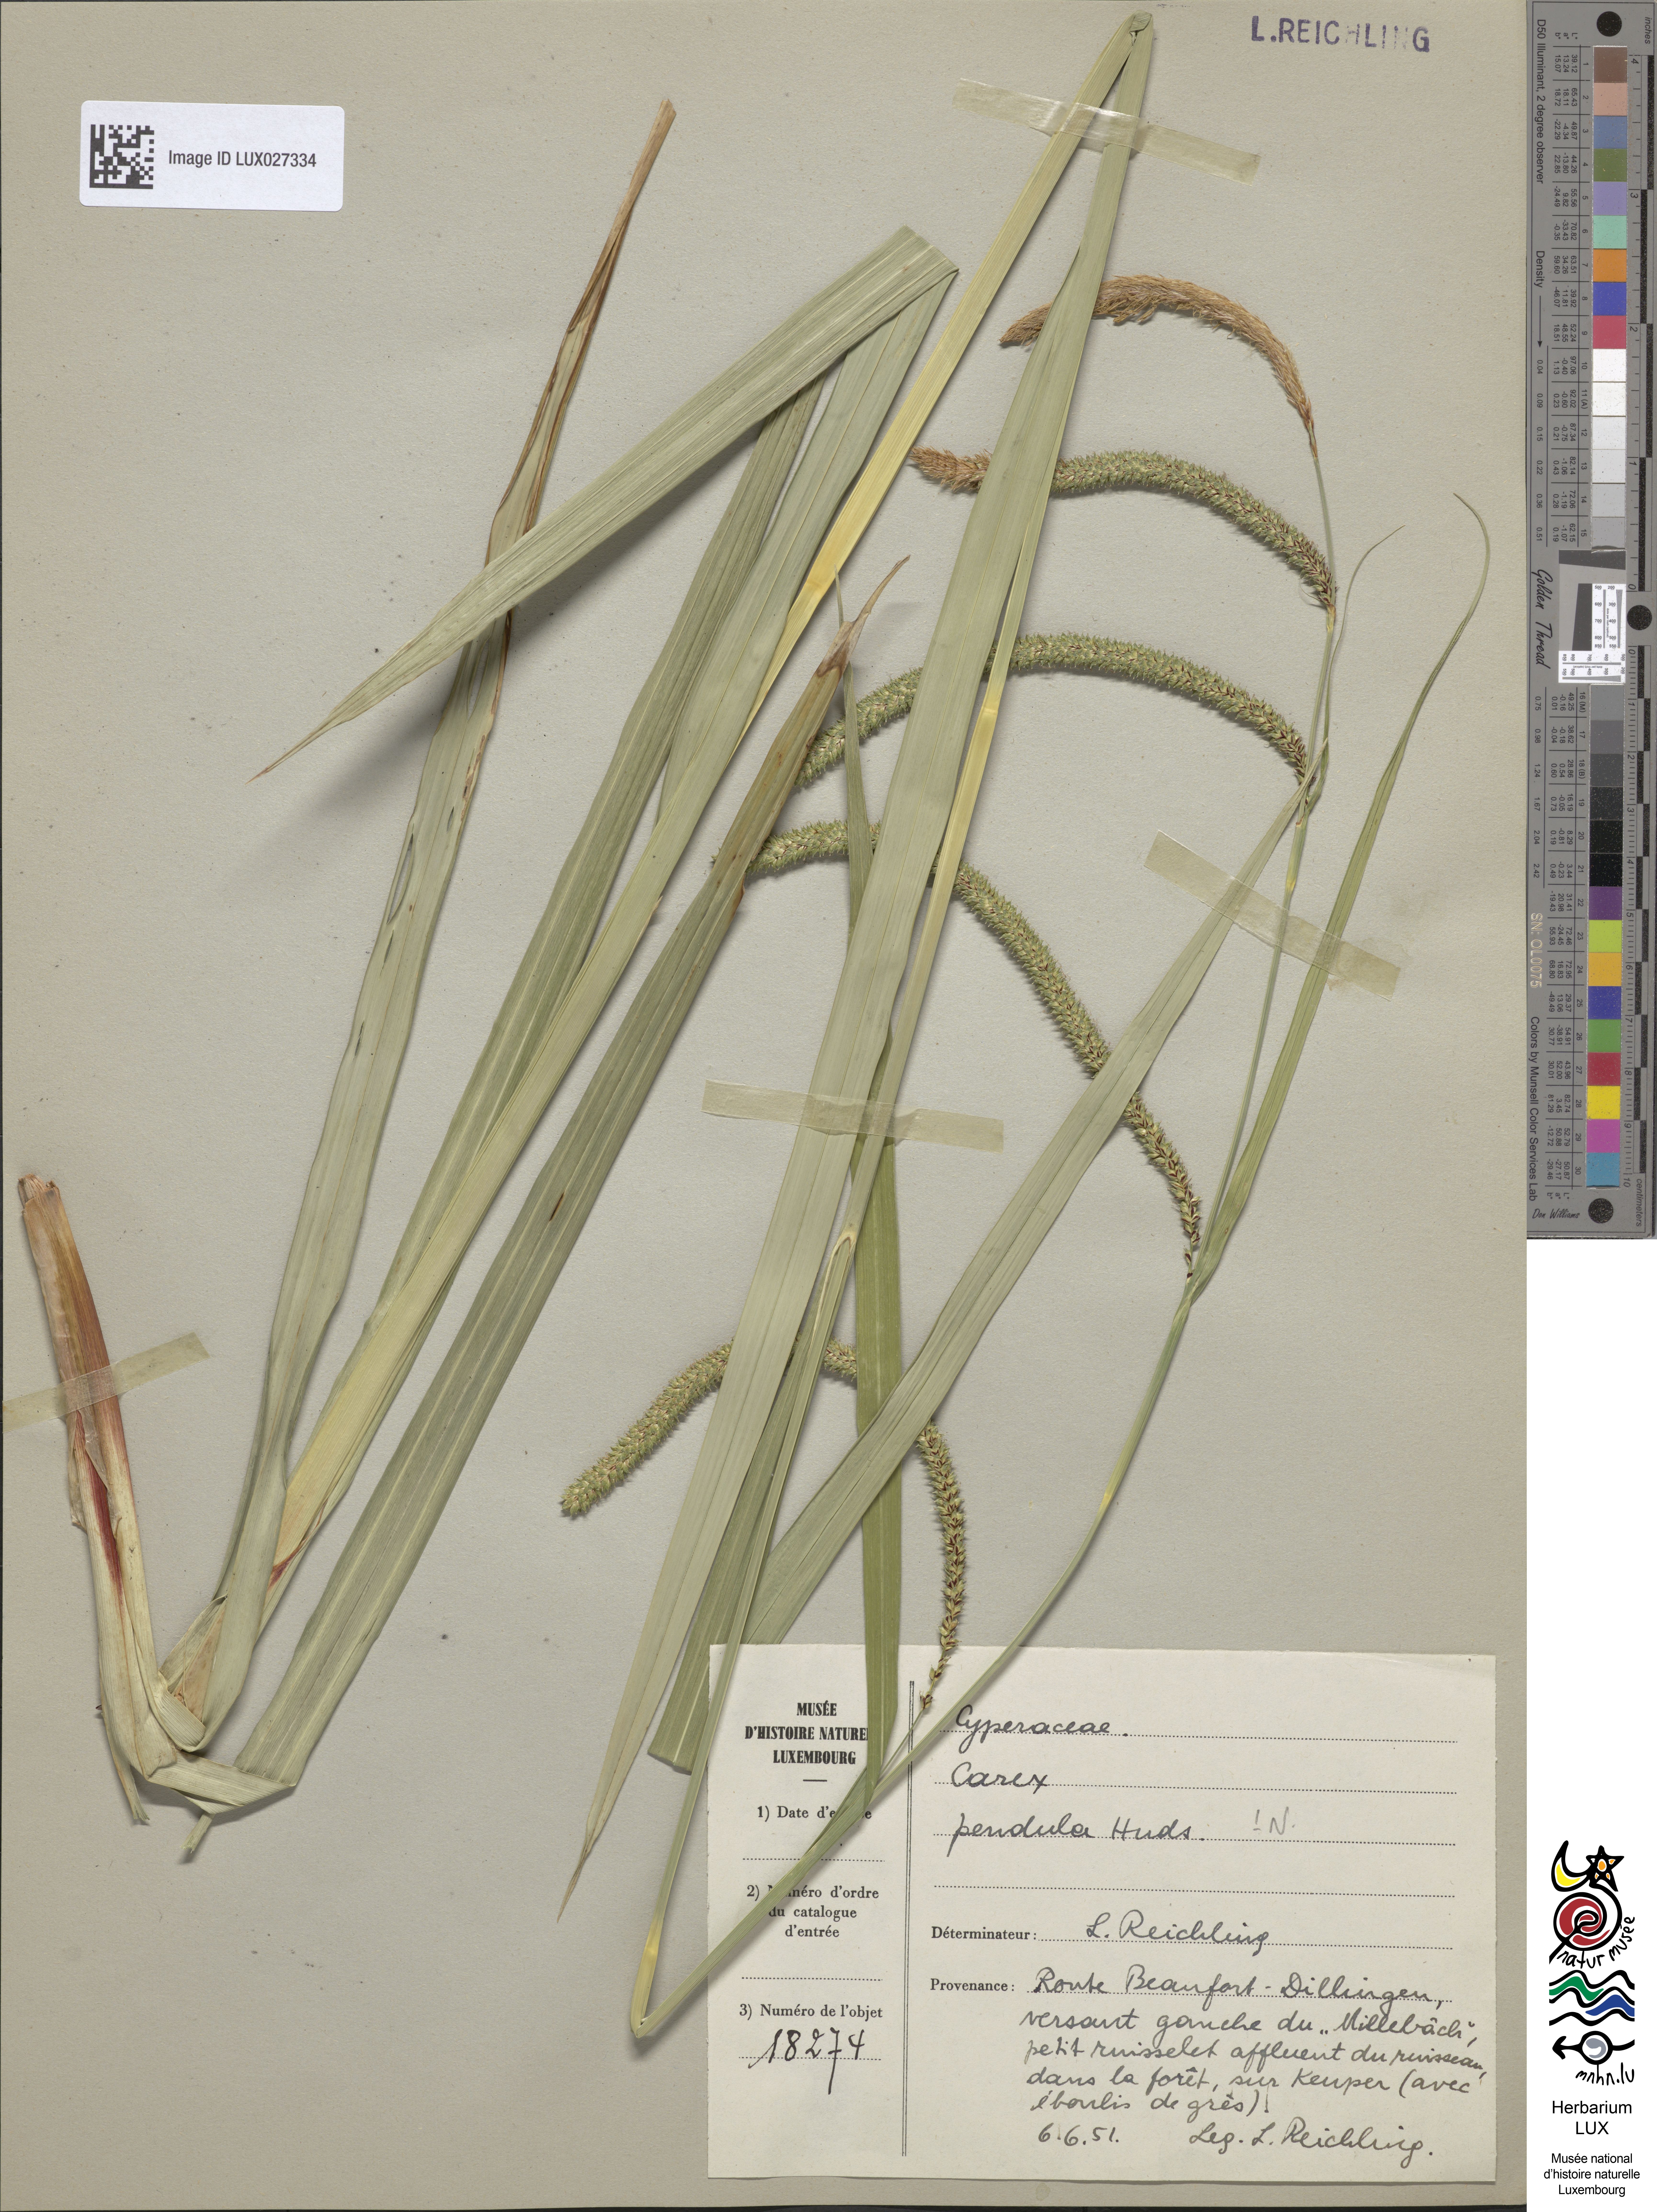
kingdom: Plantae
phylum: Tracheophyta
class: Liliopsida
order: Poales
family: Cyperaceae
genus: Carex
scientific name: Carex pendula
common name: Pendulous sedge
